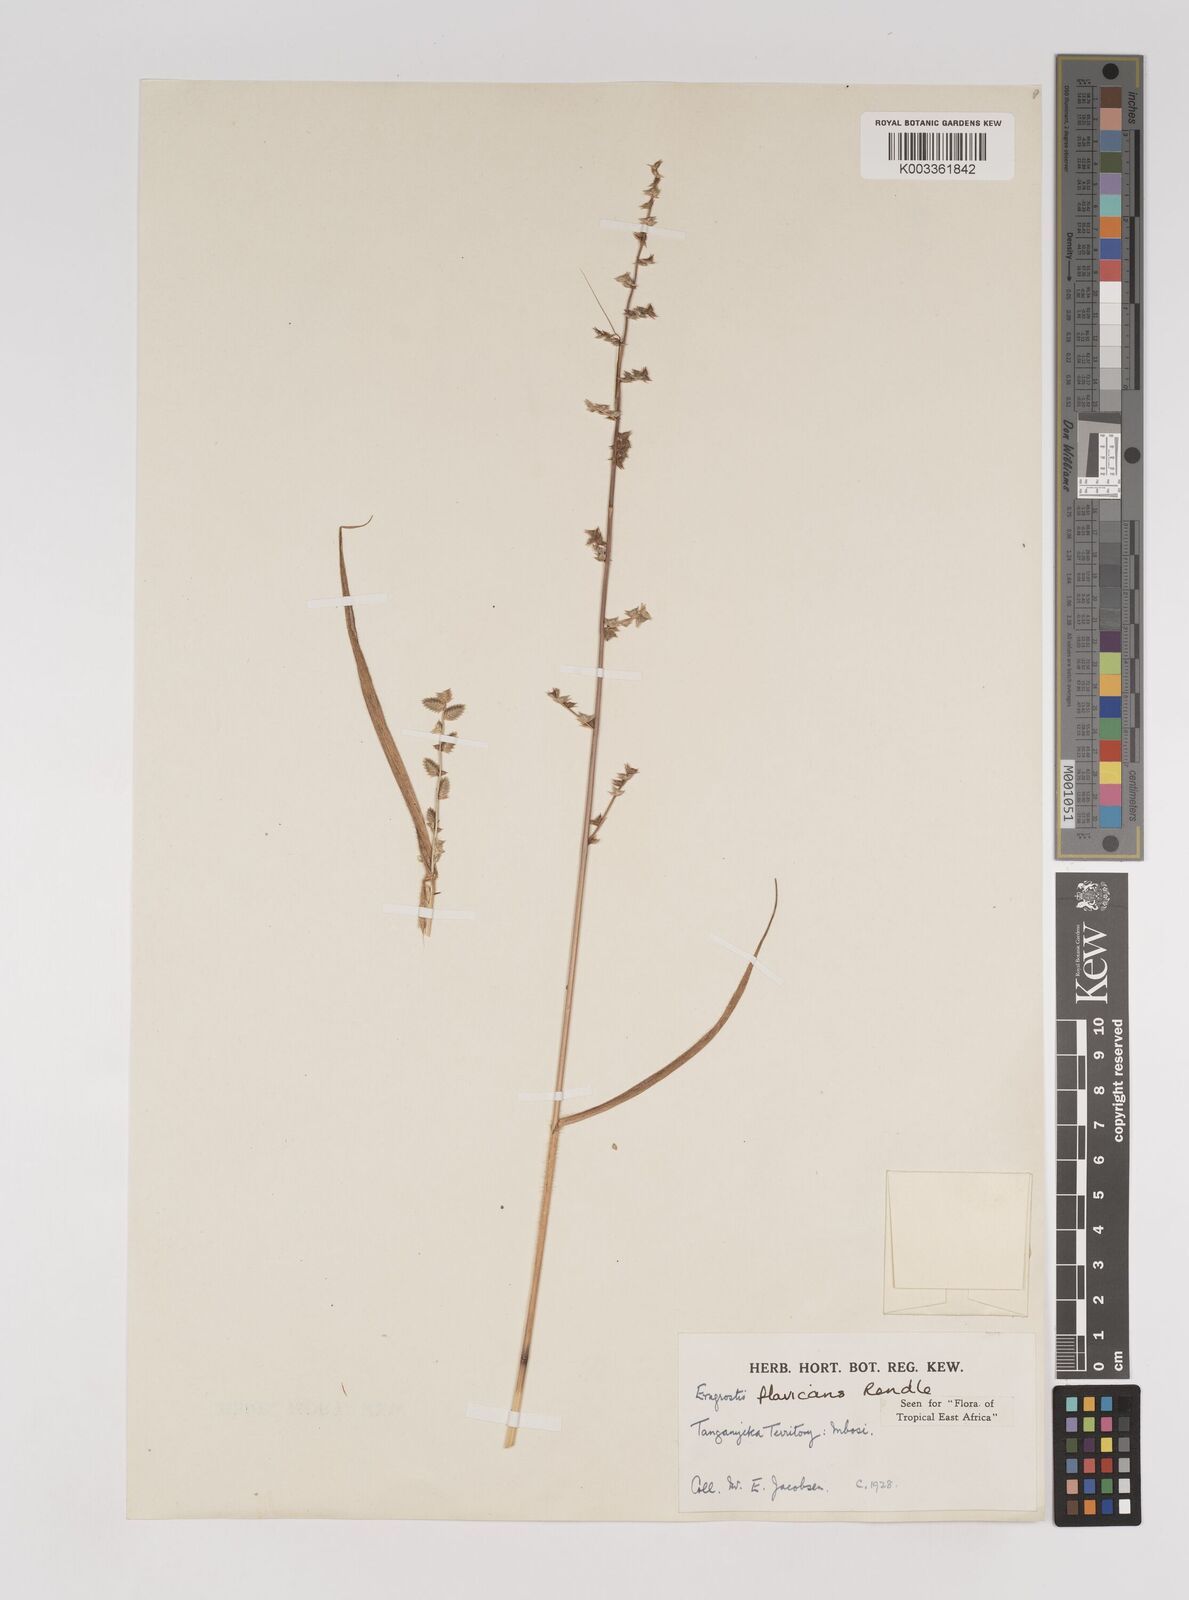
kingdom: Plantae
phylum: Tracheophyta
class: Liliopsida
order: Poales
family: Poaceae
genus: Eragrostis
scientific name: Eragrostis flavicans
